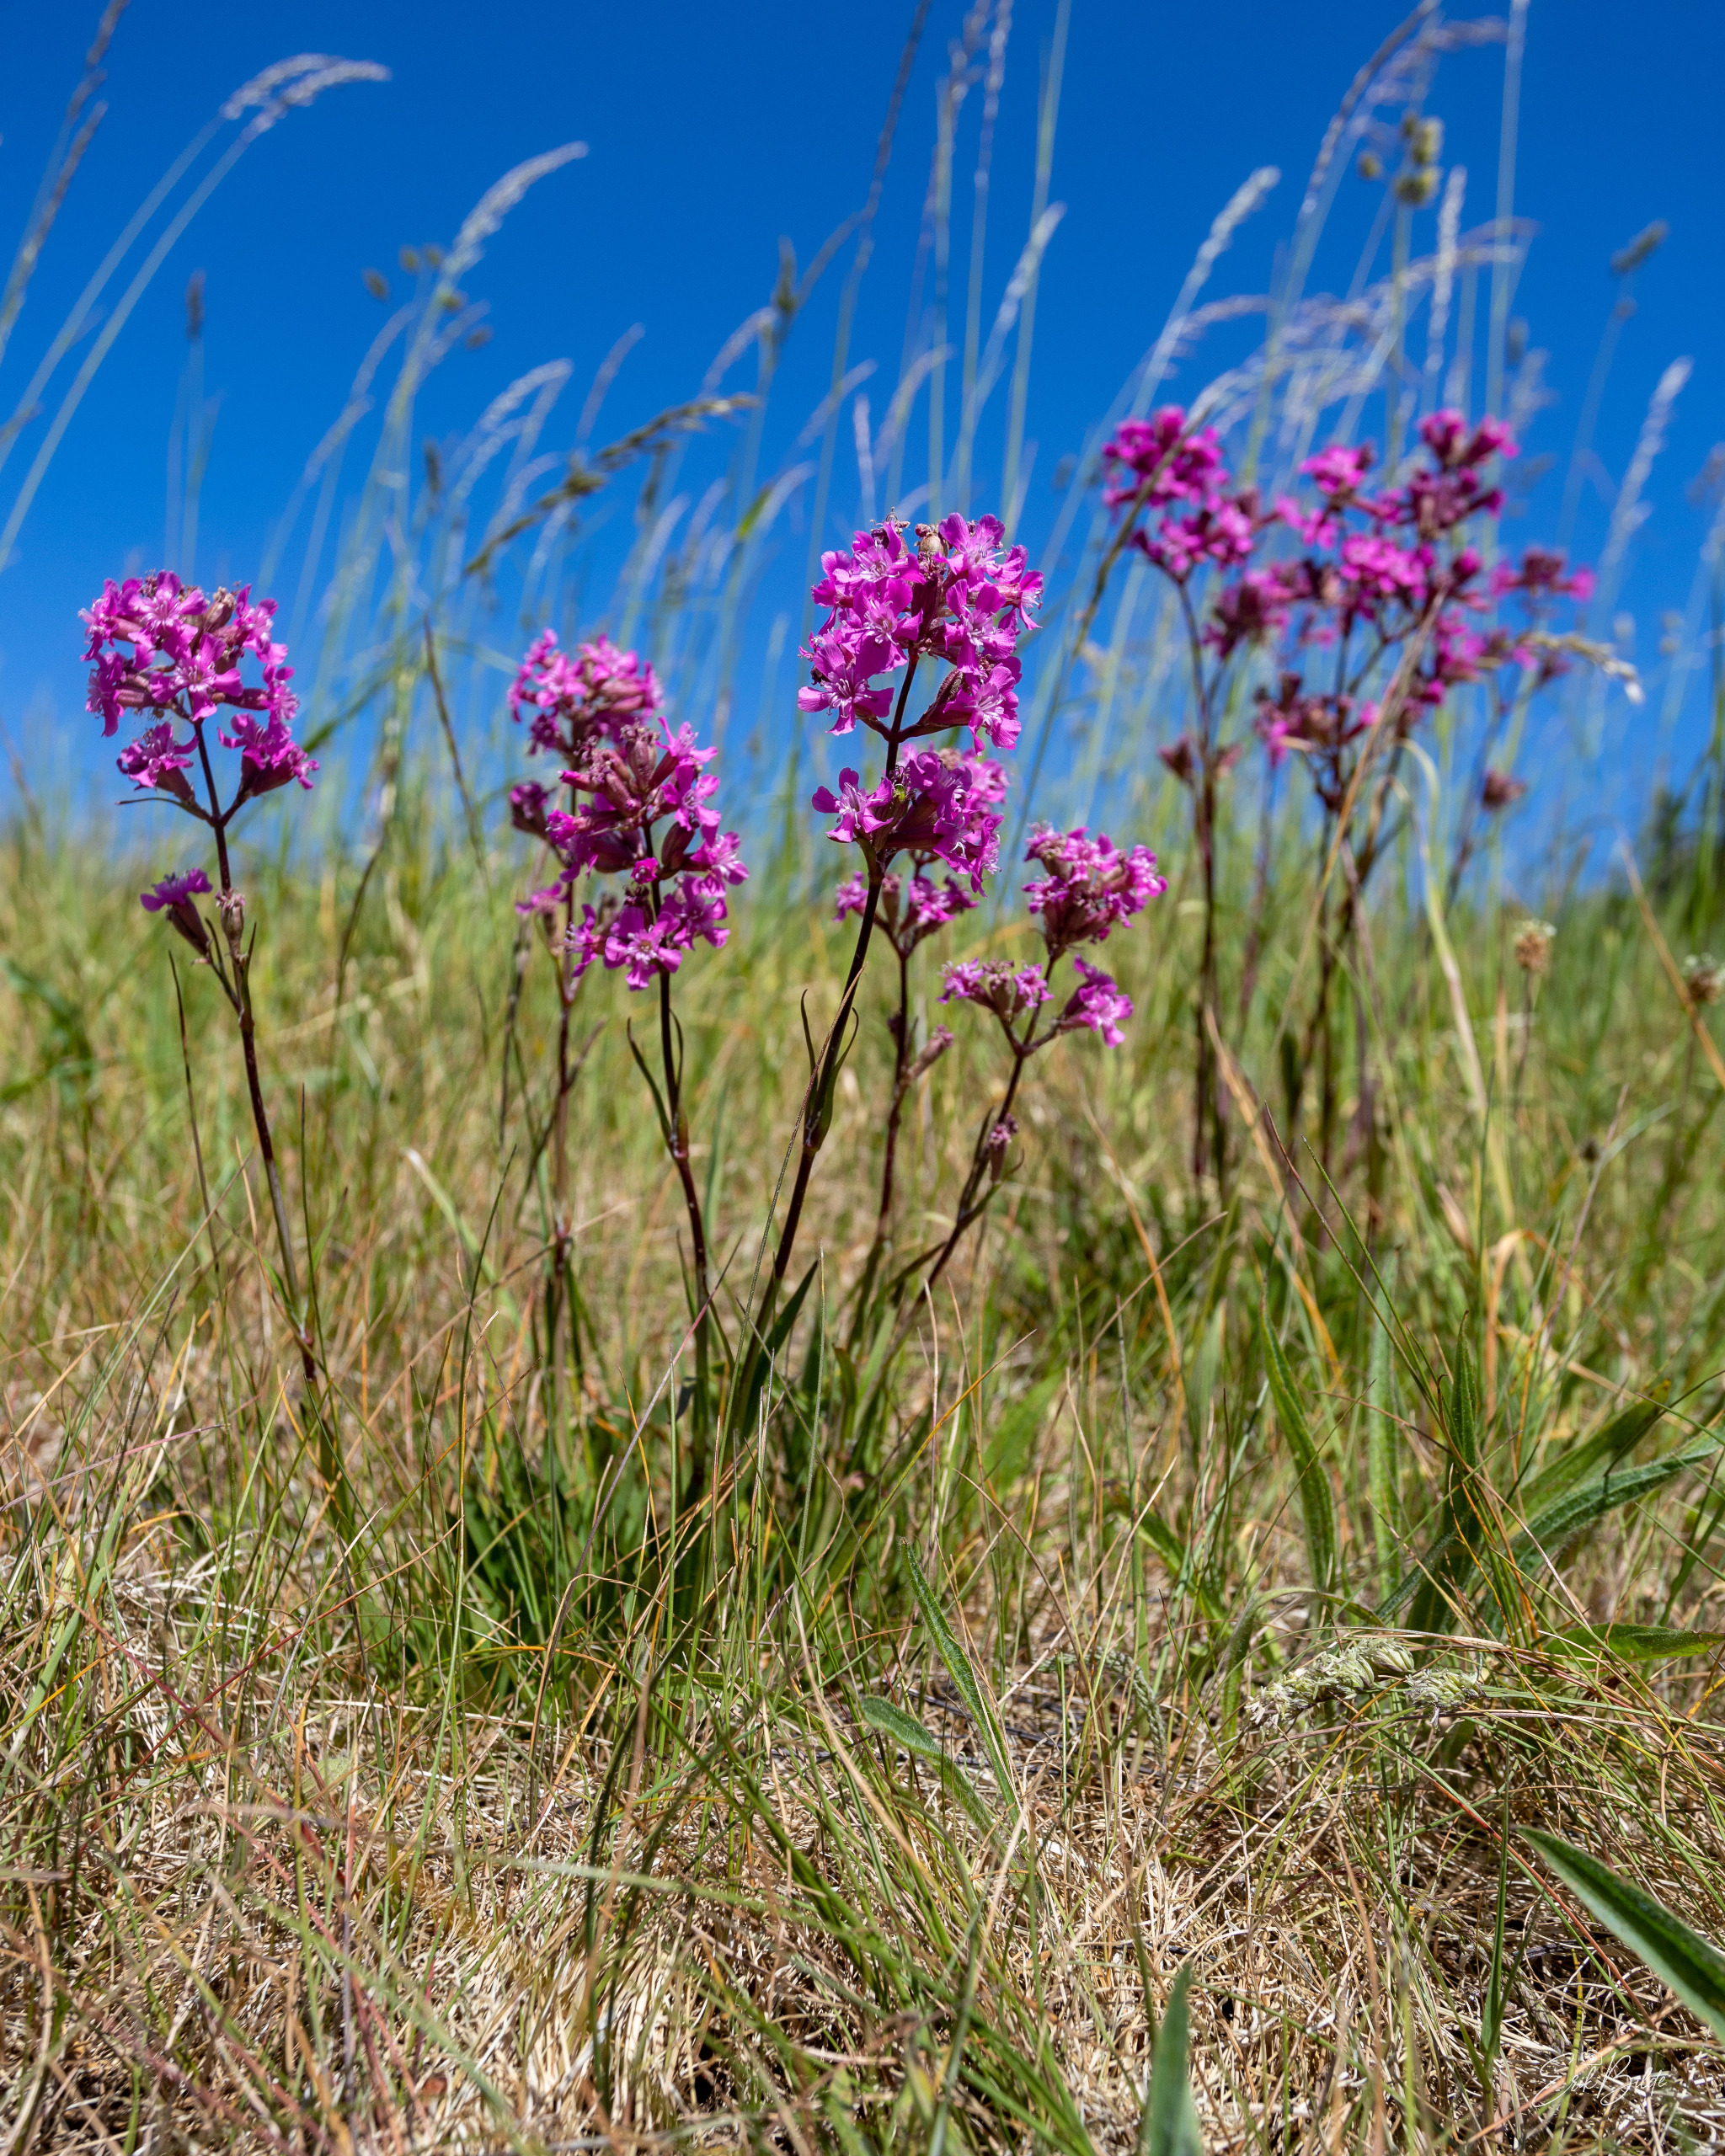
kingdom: Plantae
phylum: Tracheophyta
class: Magnoliopsida
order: Caryophyllales
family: Caryophyllaceae
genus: Viscaria
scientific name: Viscaria vulgaris
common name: Tjærenellike
